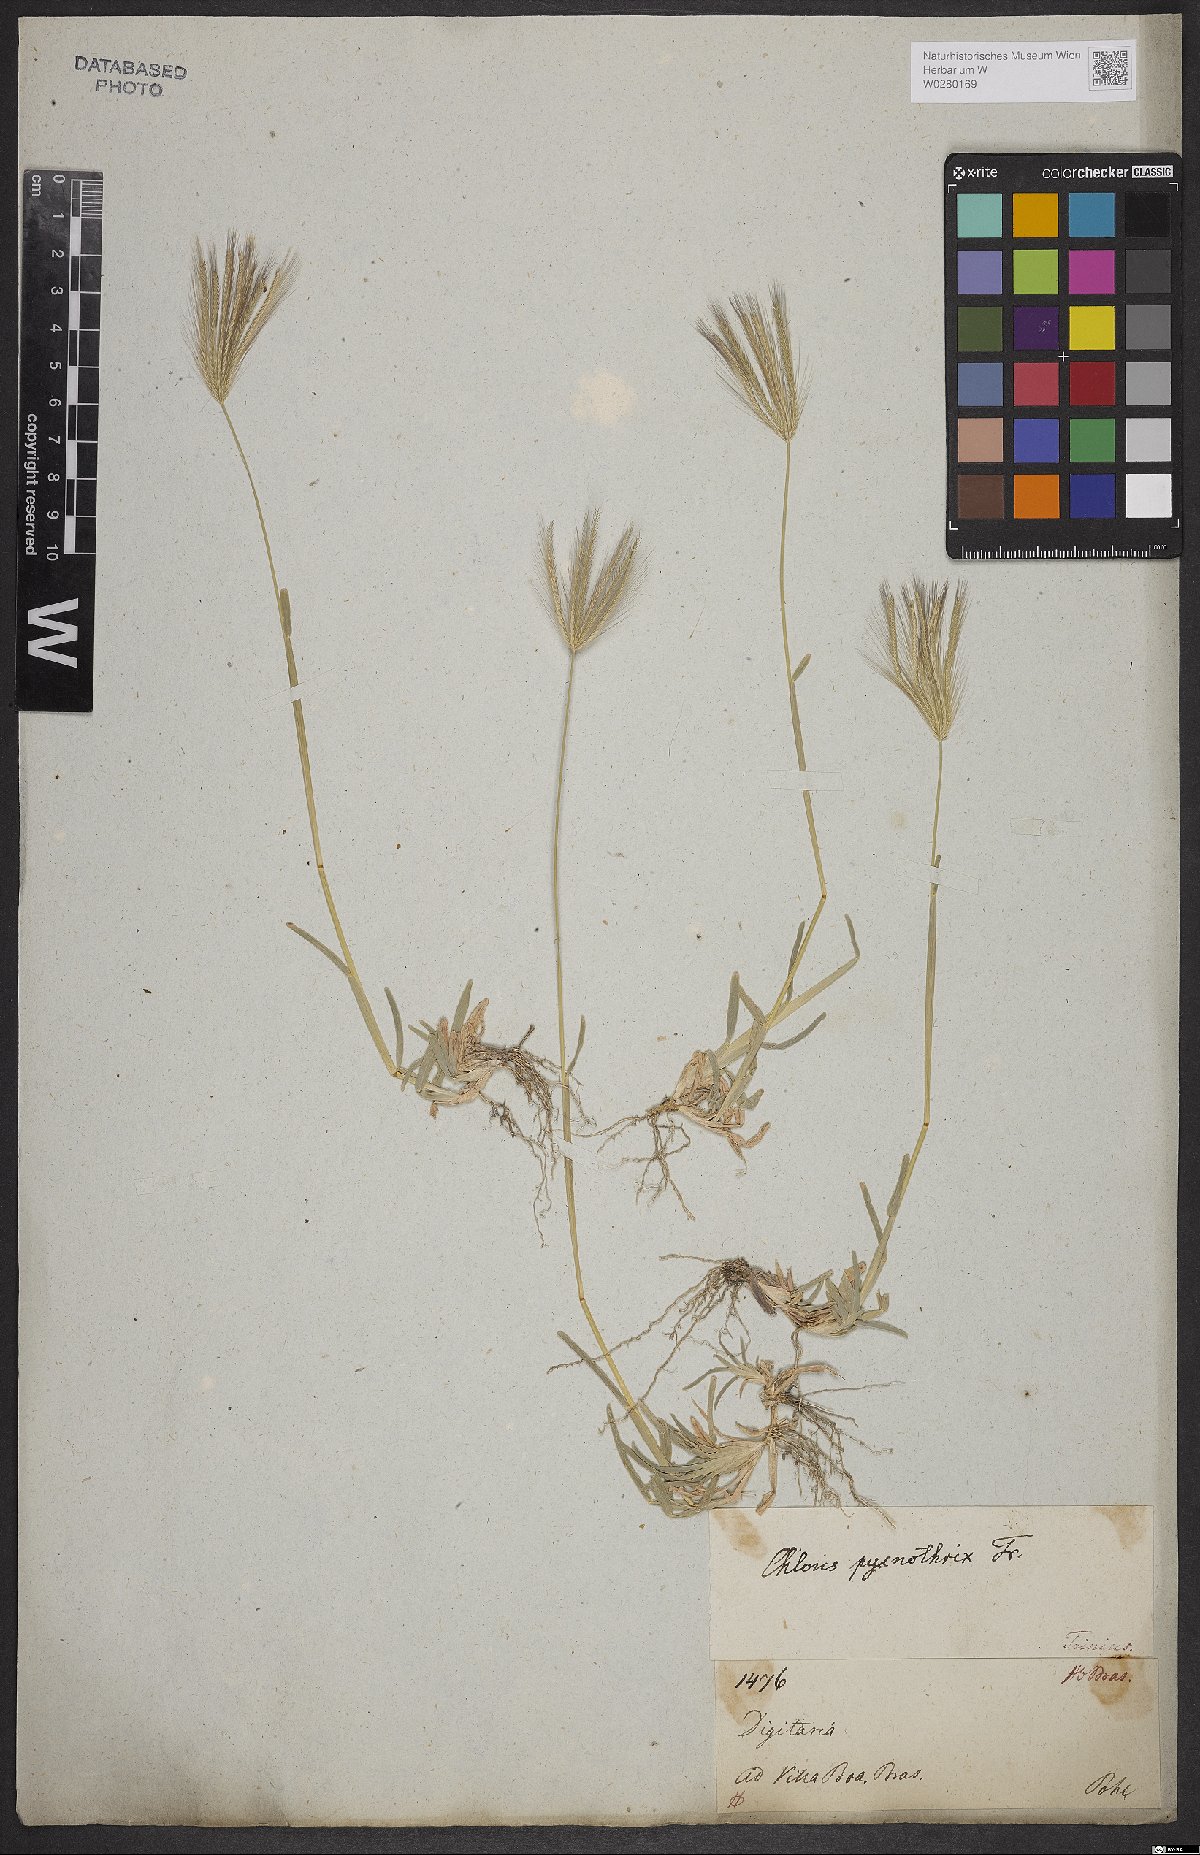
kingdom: Plantae
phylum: Tracheophyta
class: Liliopsida
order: Poales
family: Poaceae
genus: Chloris
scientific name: Chloris pycnothrix
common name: Spiderweb chloris
